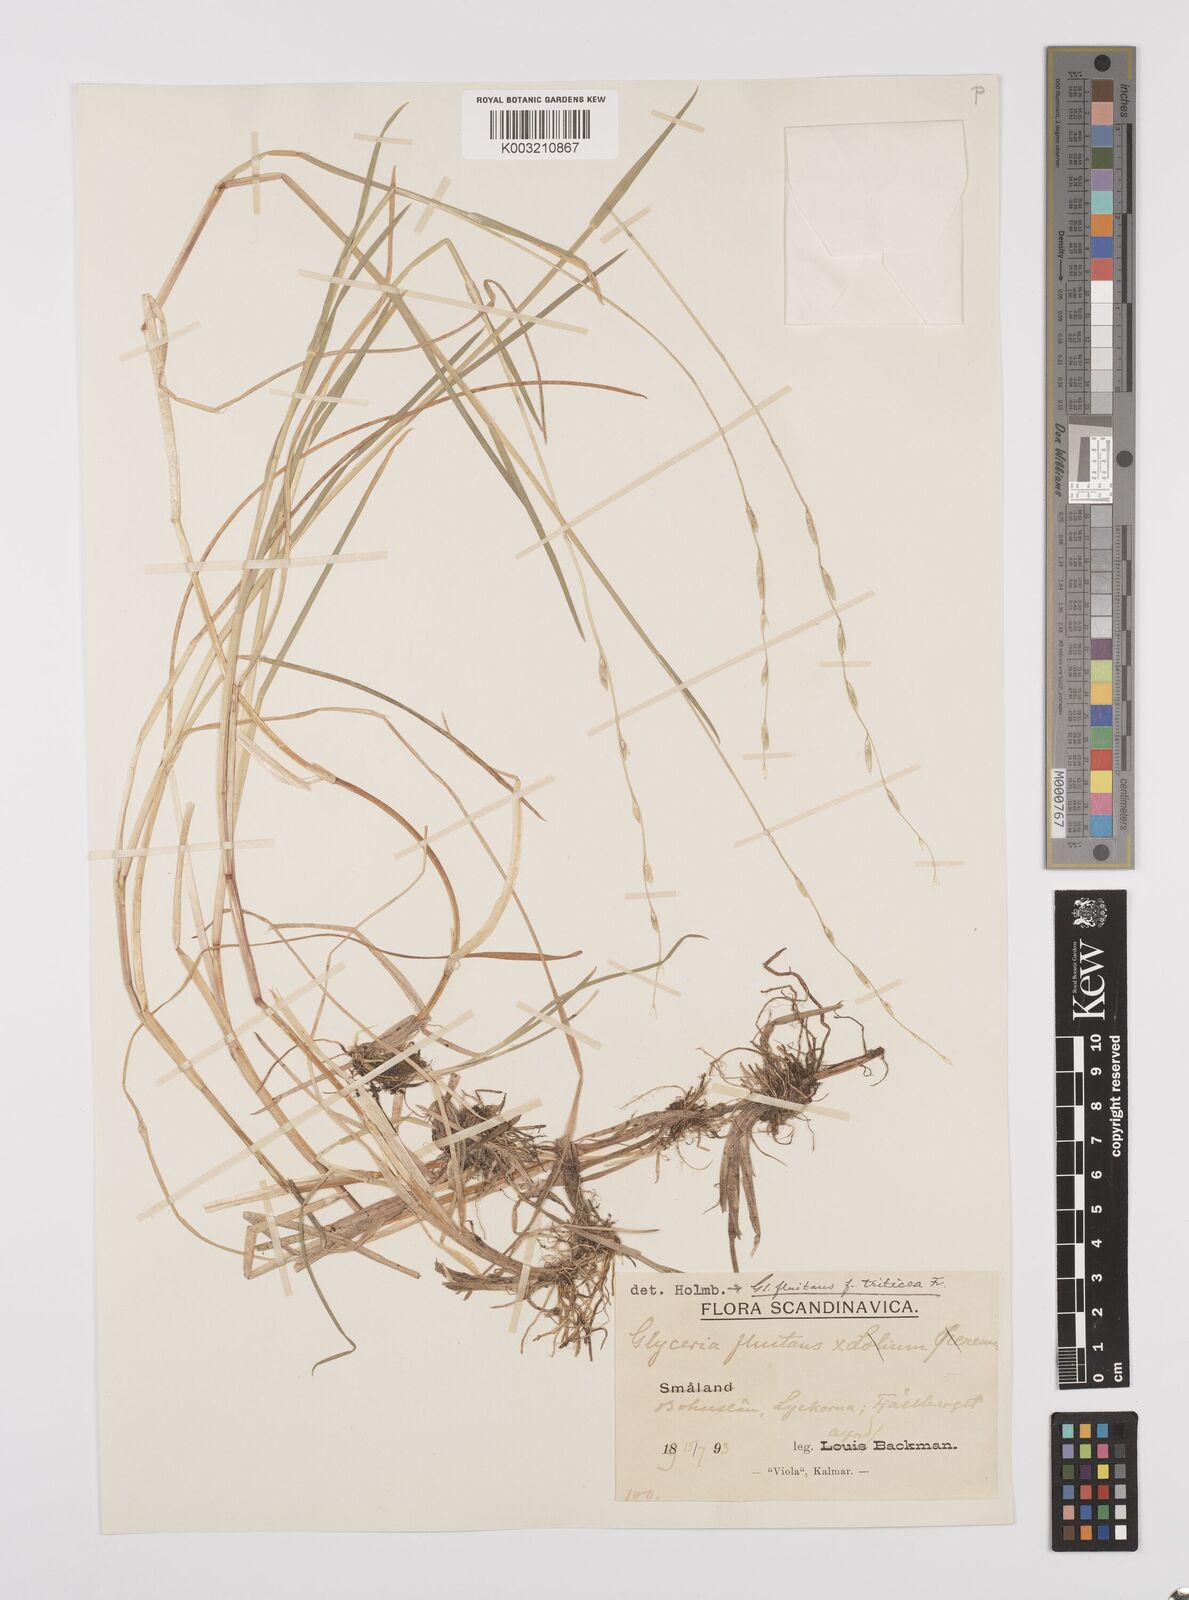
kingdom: Plantae
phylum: Tracheophyta
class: Liliopsida
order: Poales
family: Poaceae
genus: Glyceria
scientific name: Glyceria fluitans
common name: Floating sweet-grass
